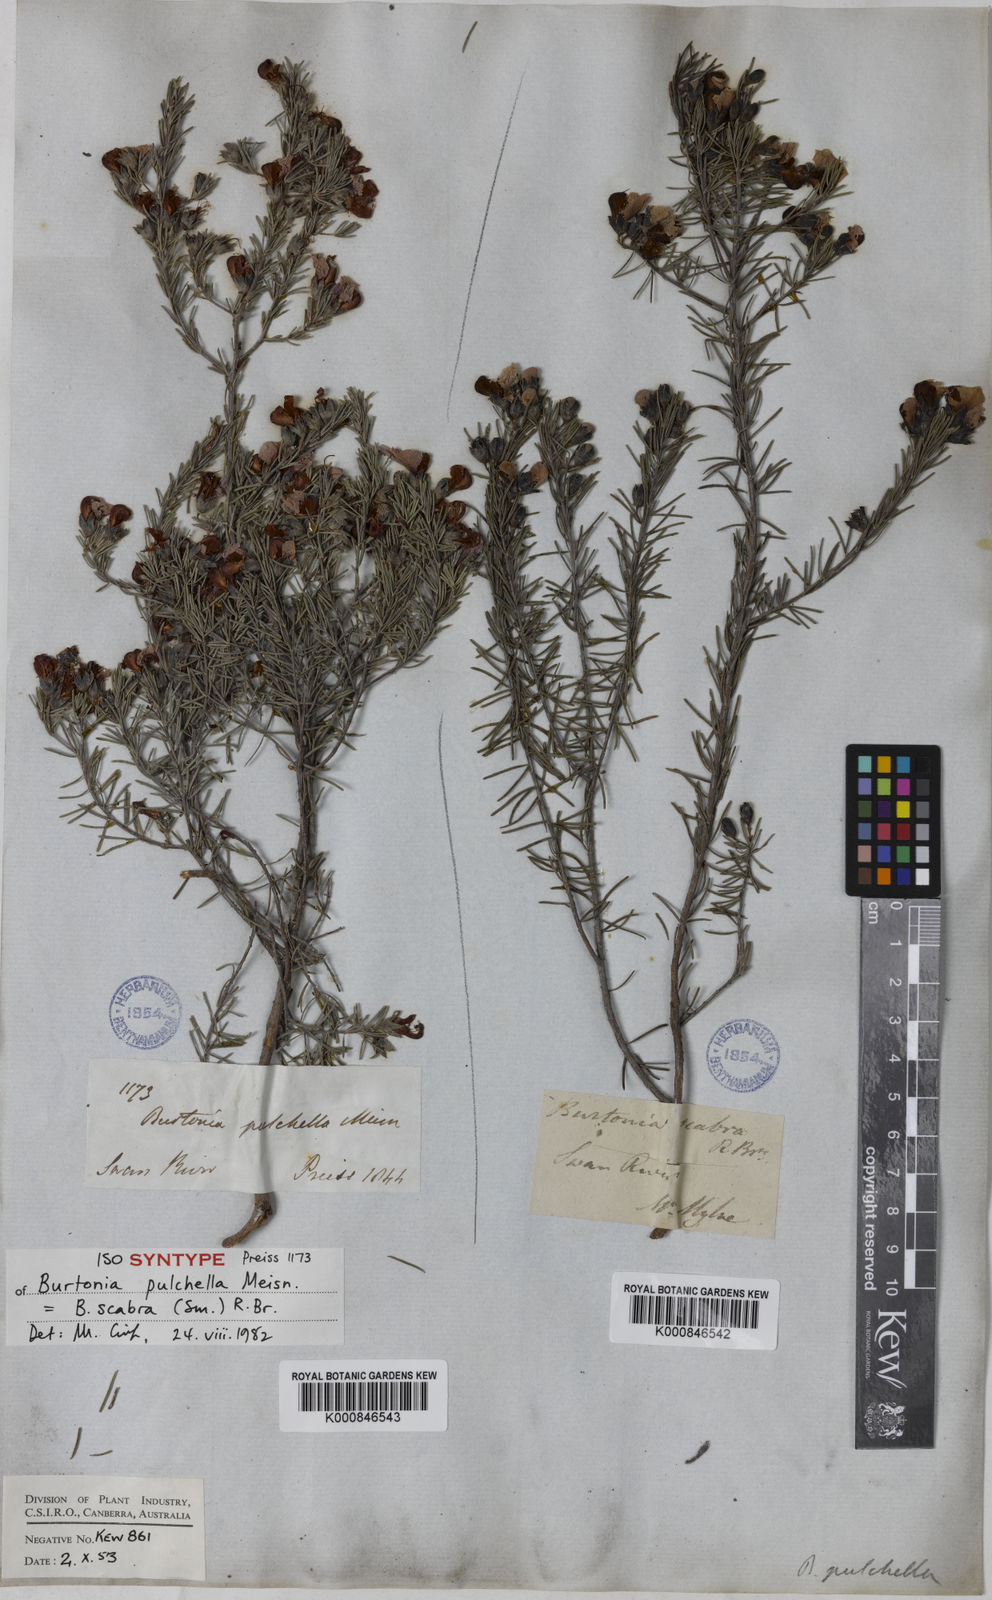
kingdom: Plantae
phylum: Tracheophyta
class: Magnoliopsida
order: Fabales
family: Fabaceae
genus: Gompholobium
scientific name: Gompholobium scabrum
